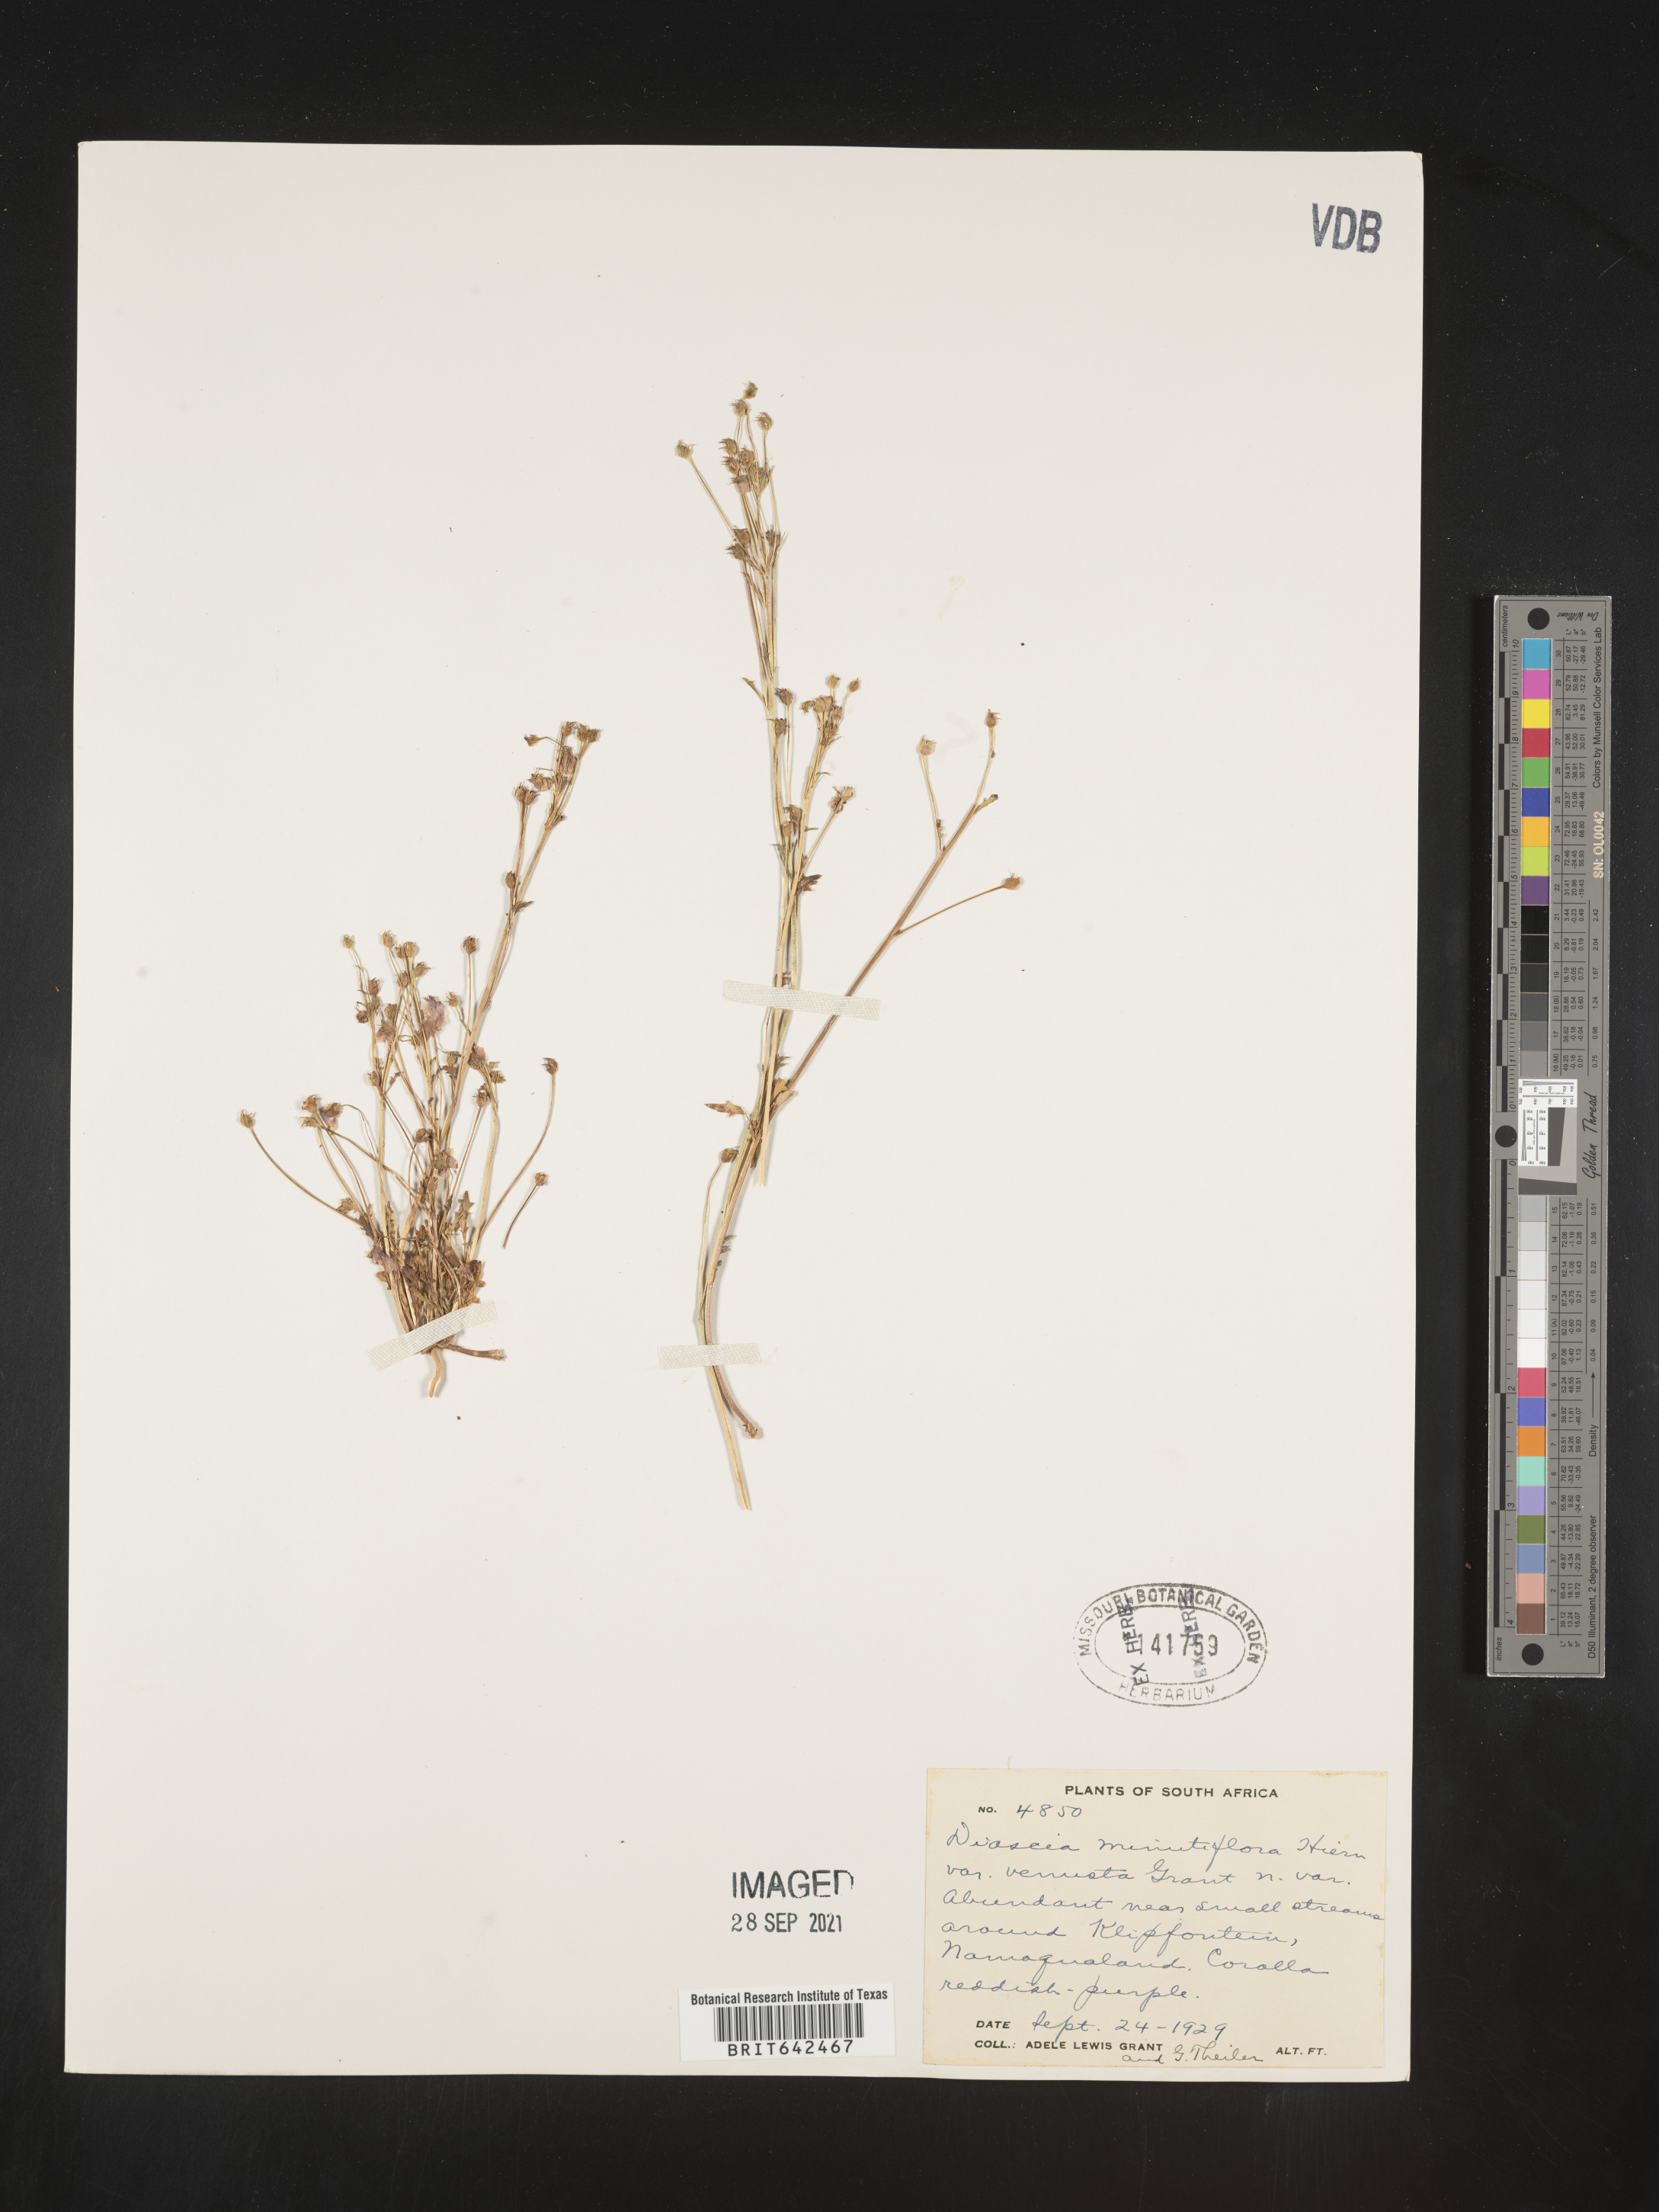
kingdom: Plantae
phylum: Tracheophyta
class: Magnoliopsida
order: Lamiales
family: Scrophulariaceae
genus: Diascia
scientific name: Diascia
